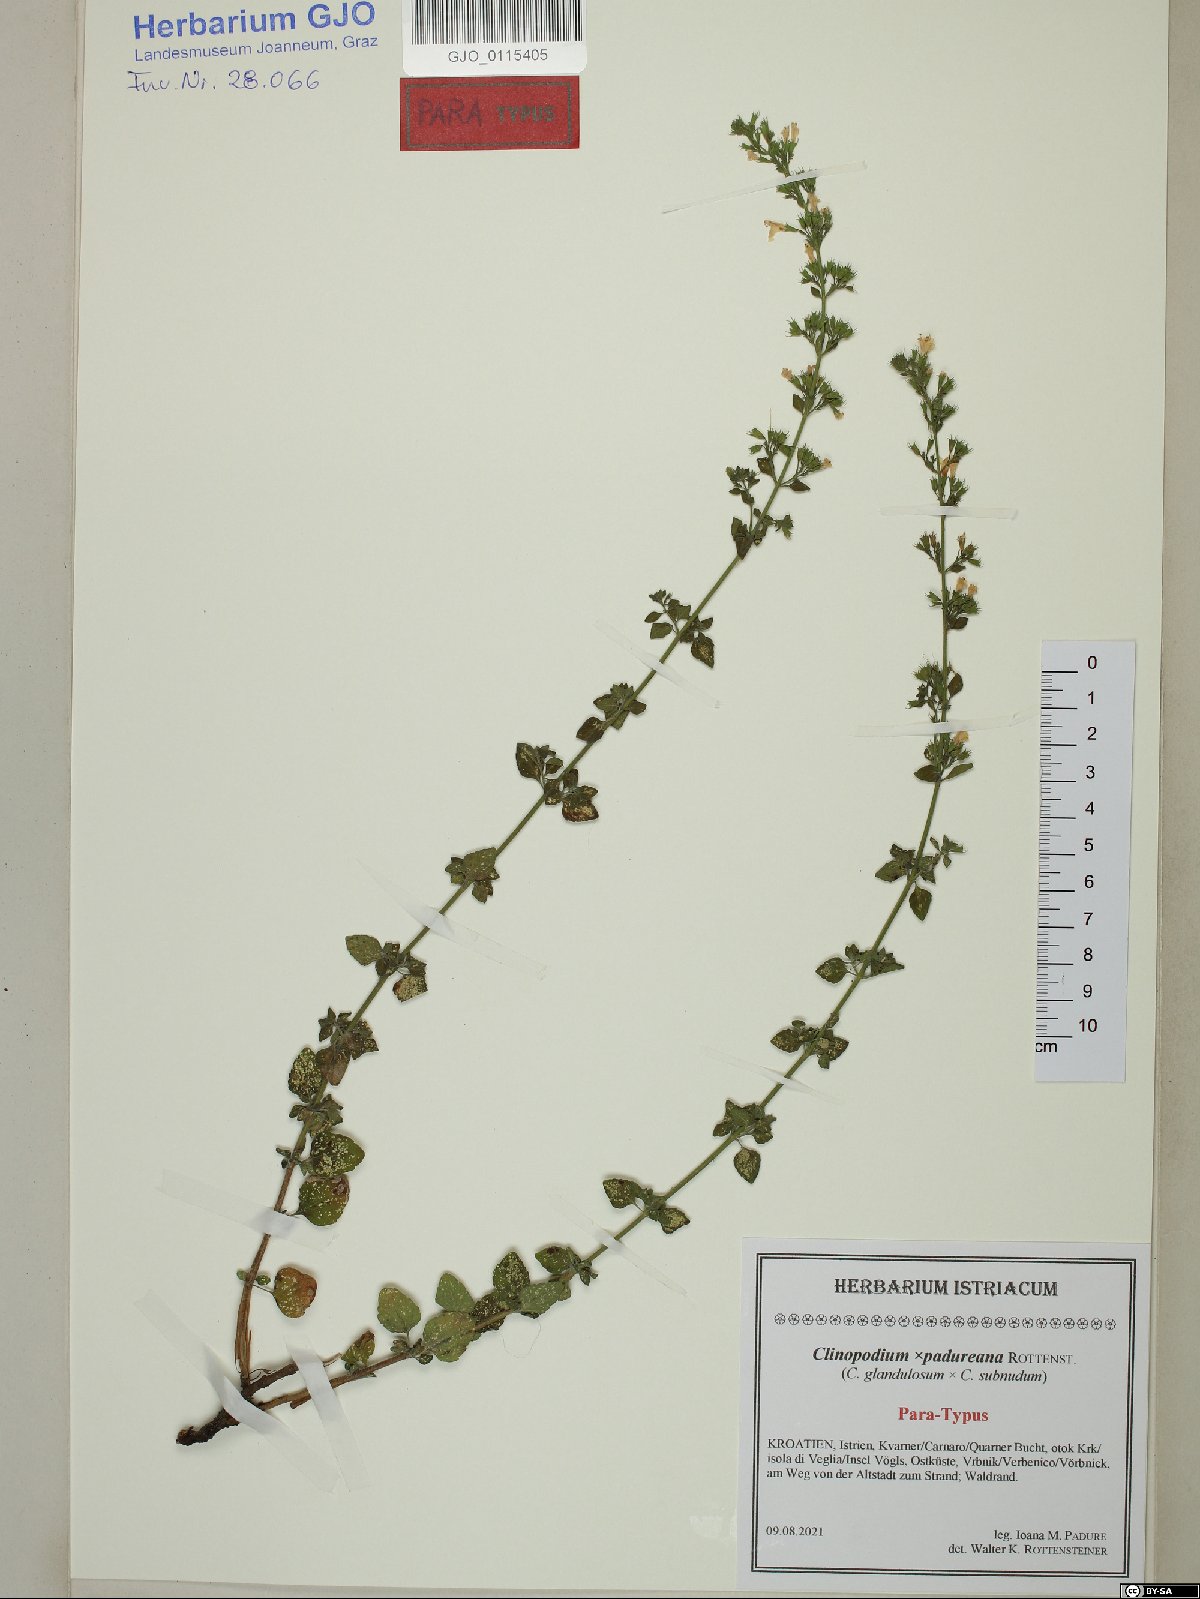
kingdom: Plantae
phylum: Tracheophyta
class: Magnoliopsida
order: Lamiales
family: Lamiaceae
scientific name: Lamiaceae
